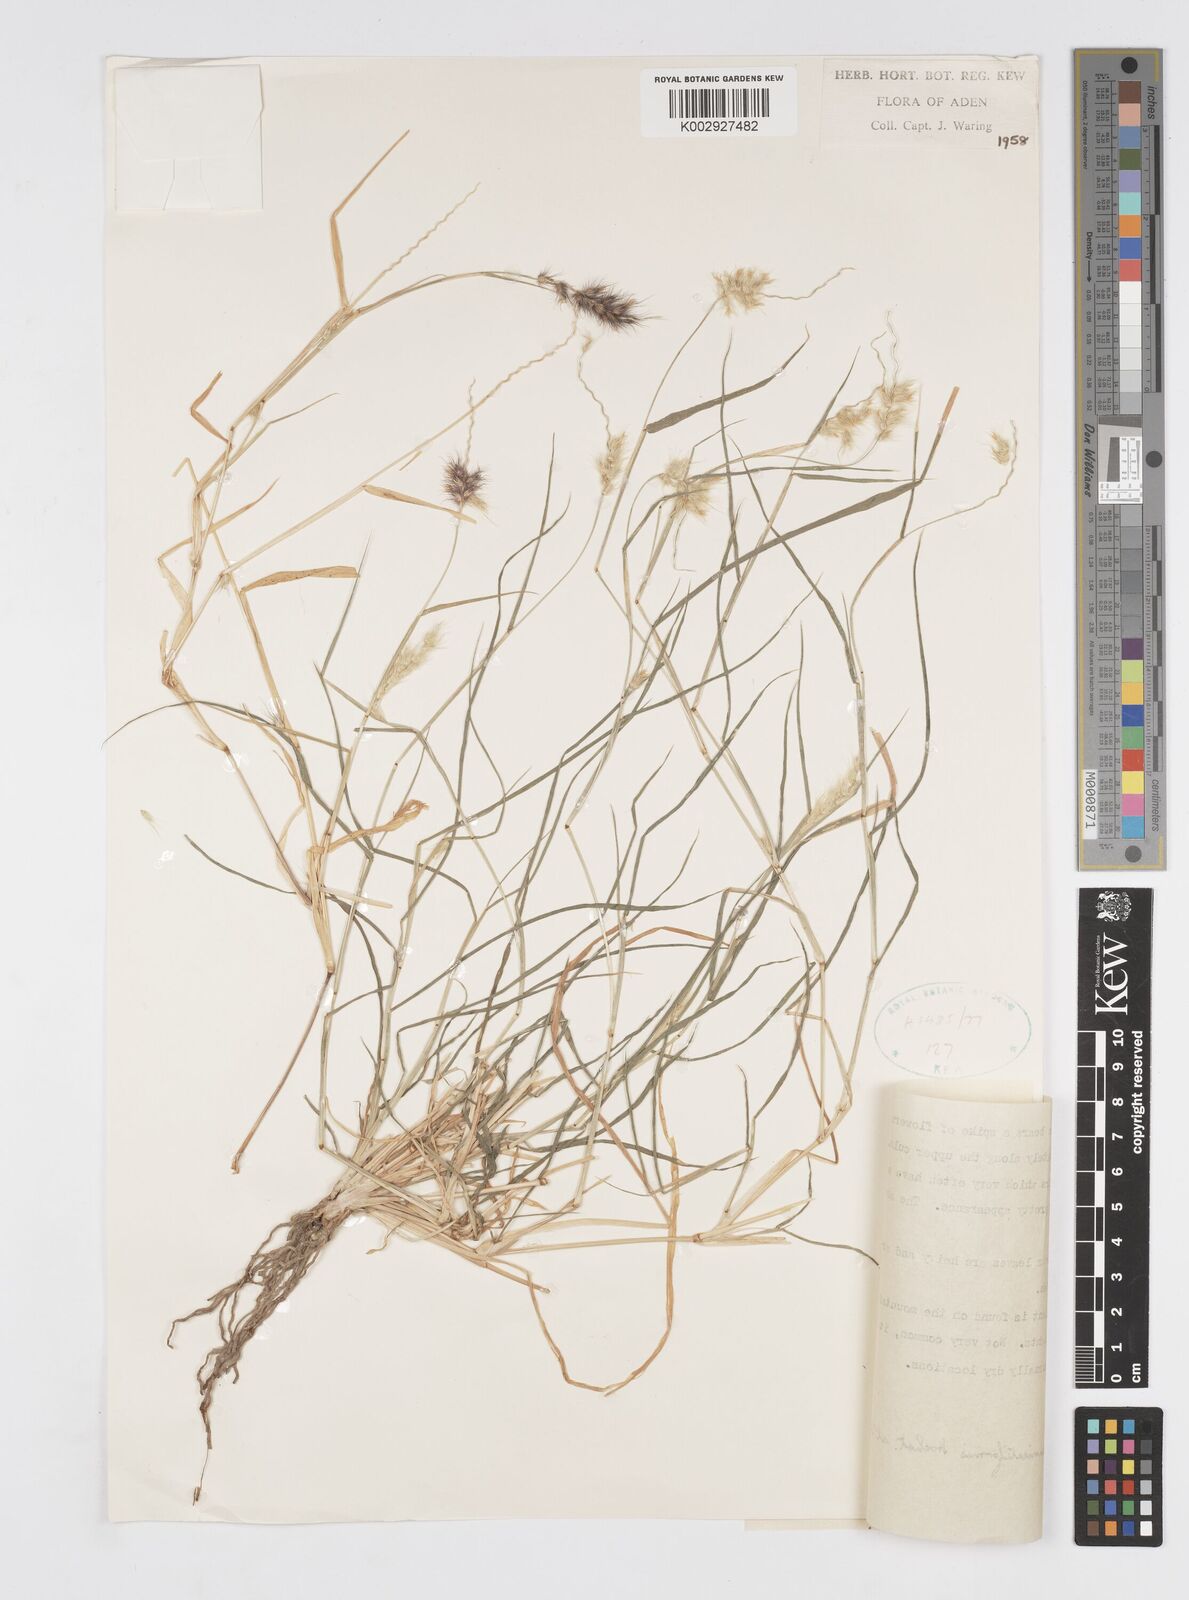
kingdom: Plantae
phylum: Tracheophyta
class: Liliopsida
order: Poales
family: Poaceae
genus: Cenchrus
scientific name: Cenchrus pennisetiformis
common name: Cloncurry
